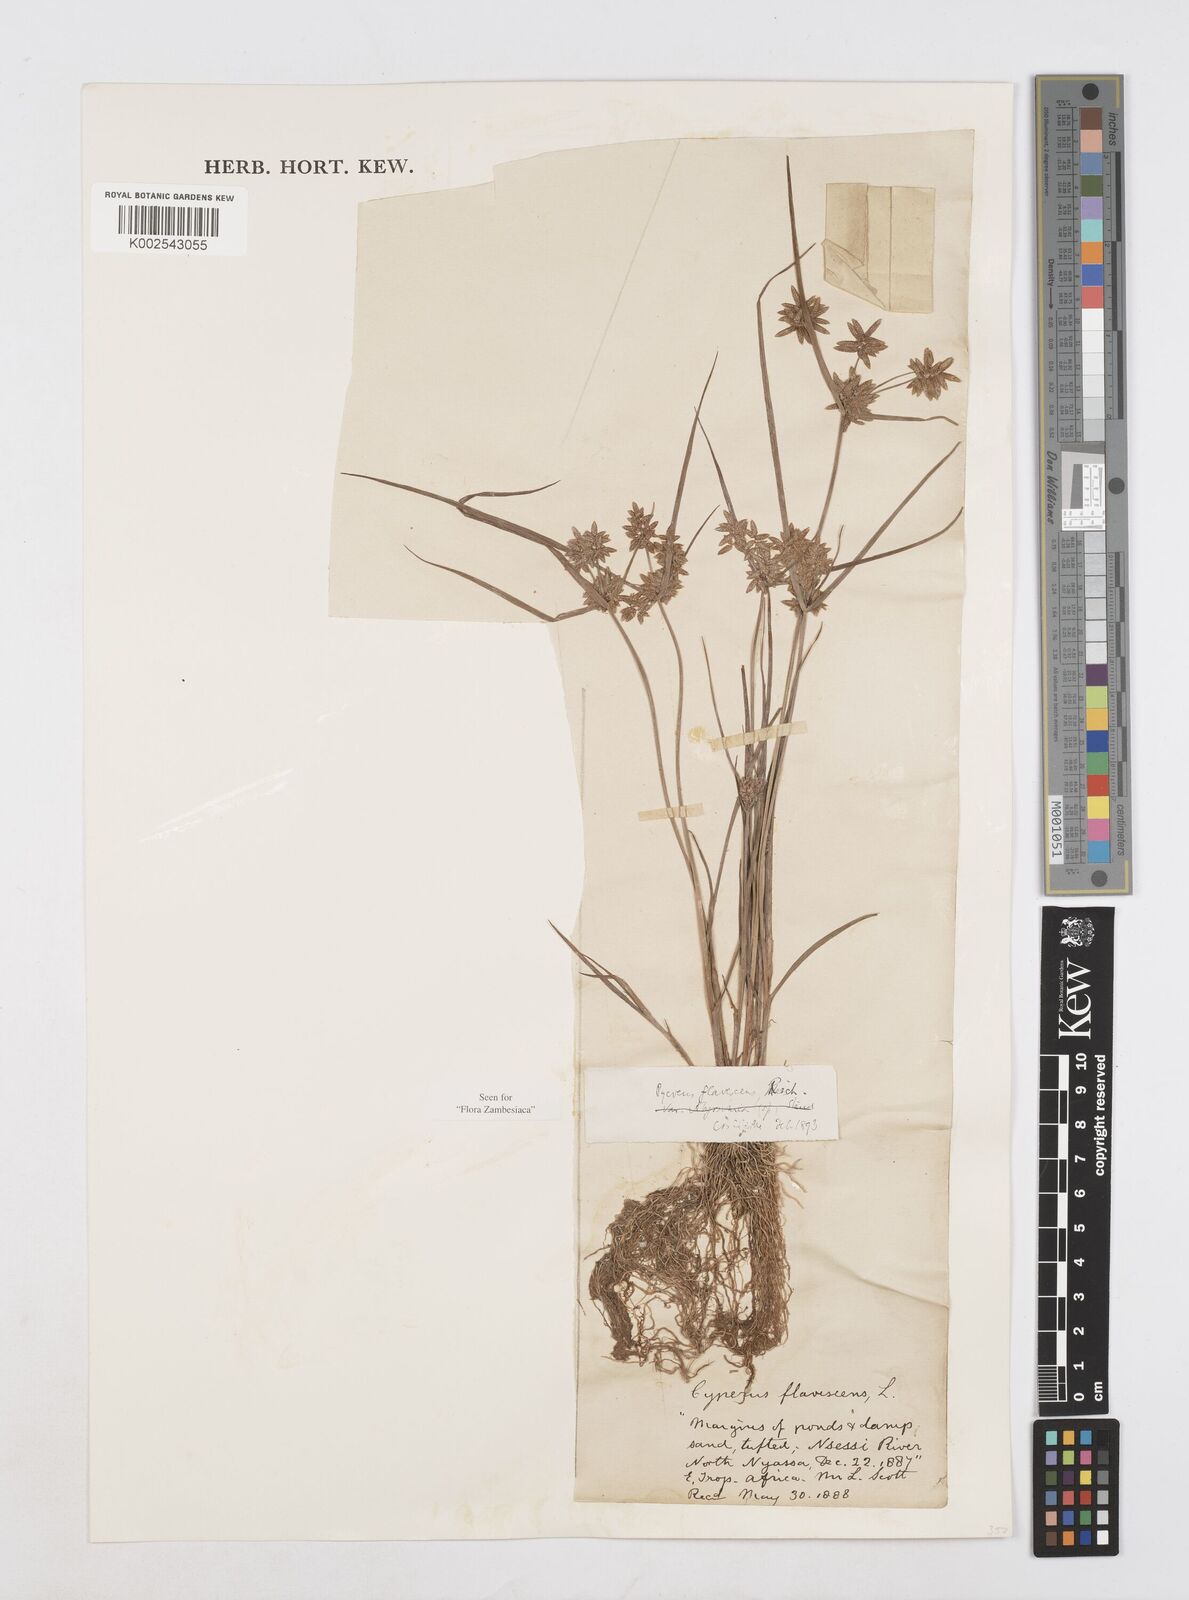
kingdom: Plantae
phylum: Tracheophyta
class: Liliopsida
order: Poales
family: Cyperaceae
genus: Cyperus
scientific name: Cyperus flavescens
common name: Yellow galingale
